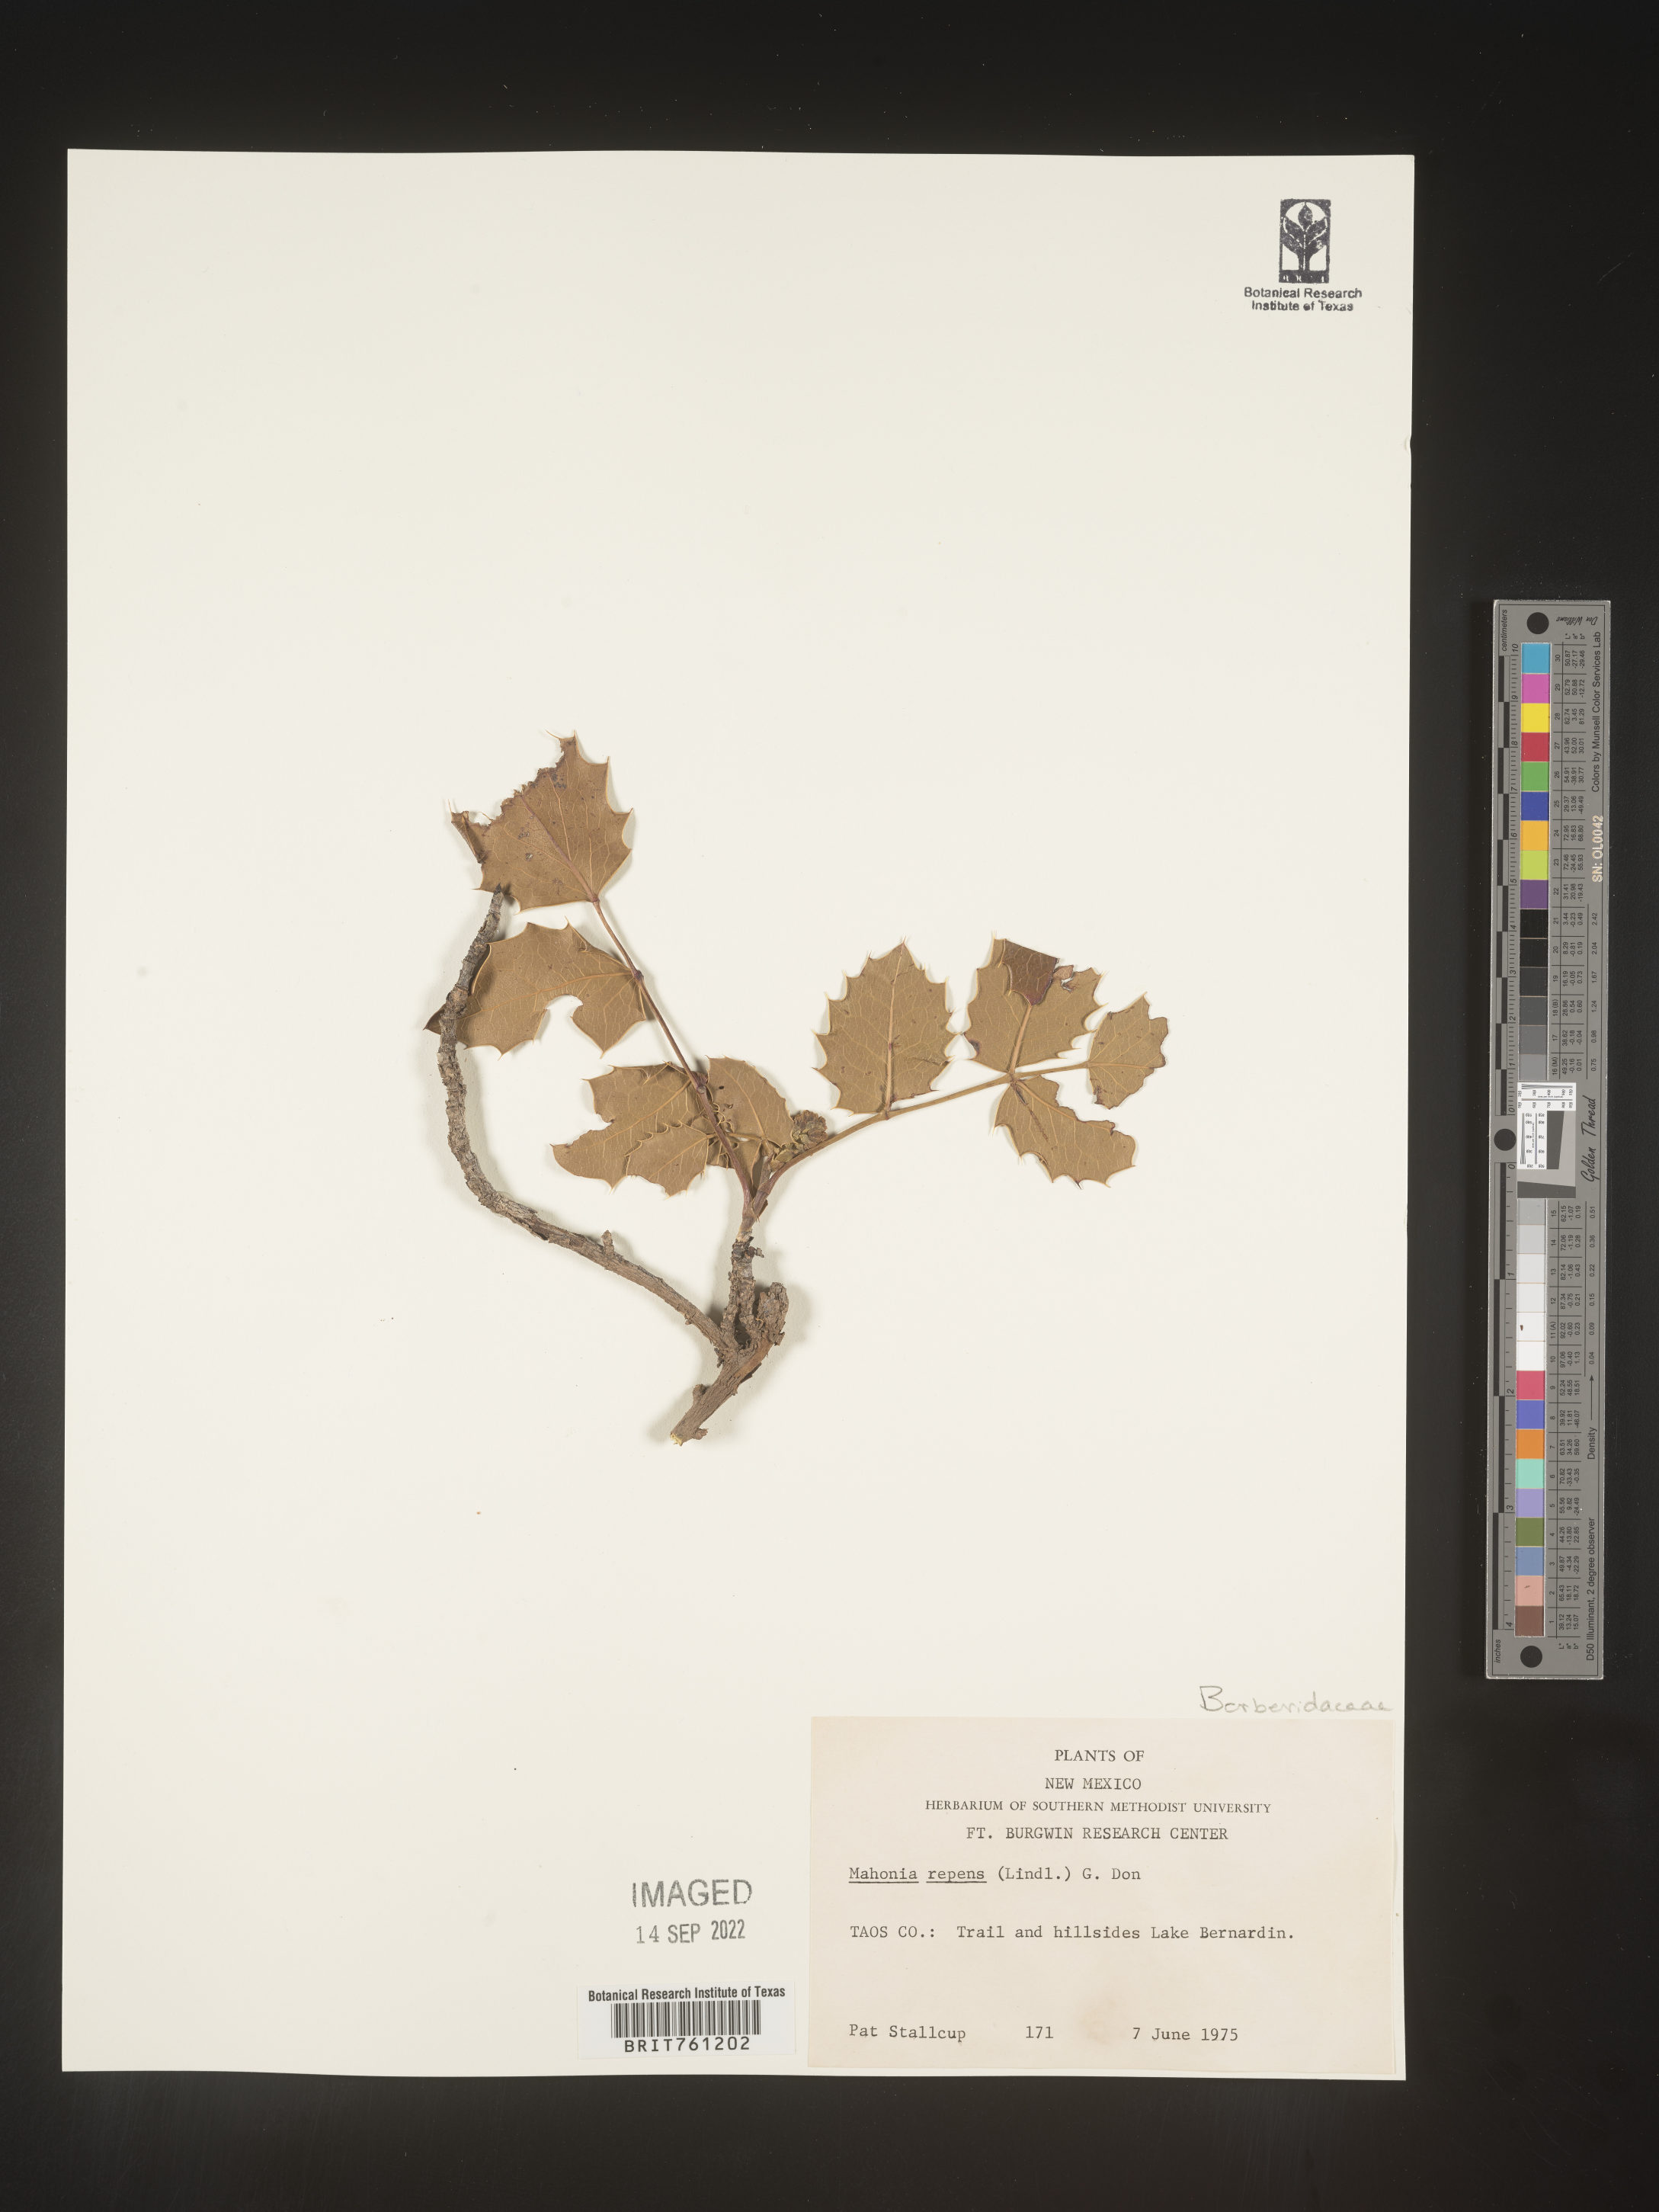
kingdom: Plantae
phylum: Tracheophyta
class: Magnoliopsida
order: Ranunculales
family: Berberidaceae
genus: Mahonia
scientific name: Mahonia repens
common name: Creeping oregon-grape
